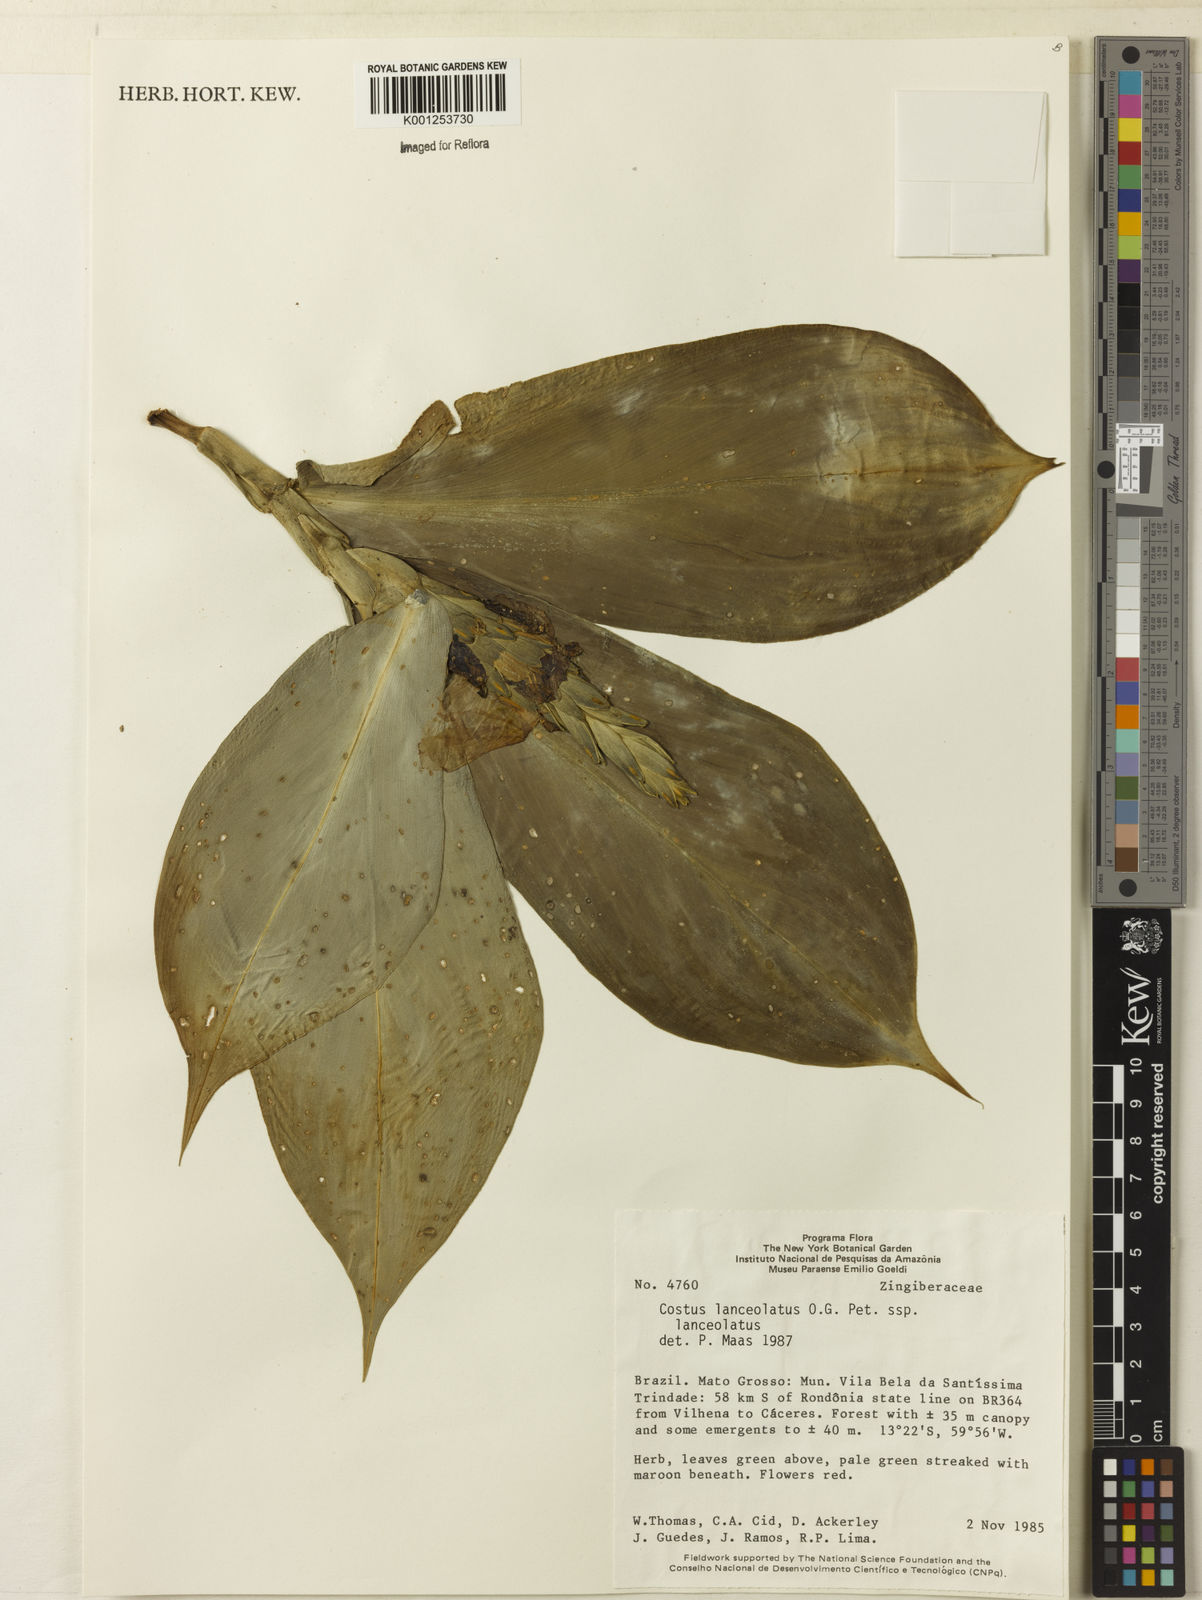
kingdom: Plantae
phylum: Tracheophyta
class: Liliopsida
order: Zingiberales
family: Costaceae
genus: Chamaecostus
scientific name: Chamaecostus lanceolatus
